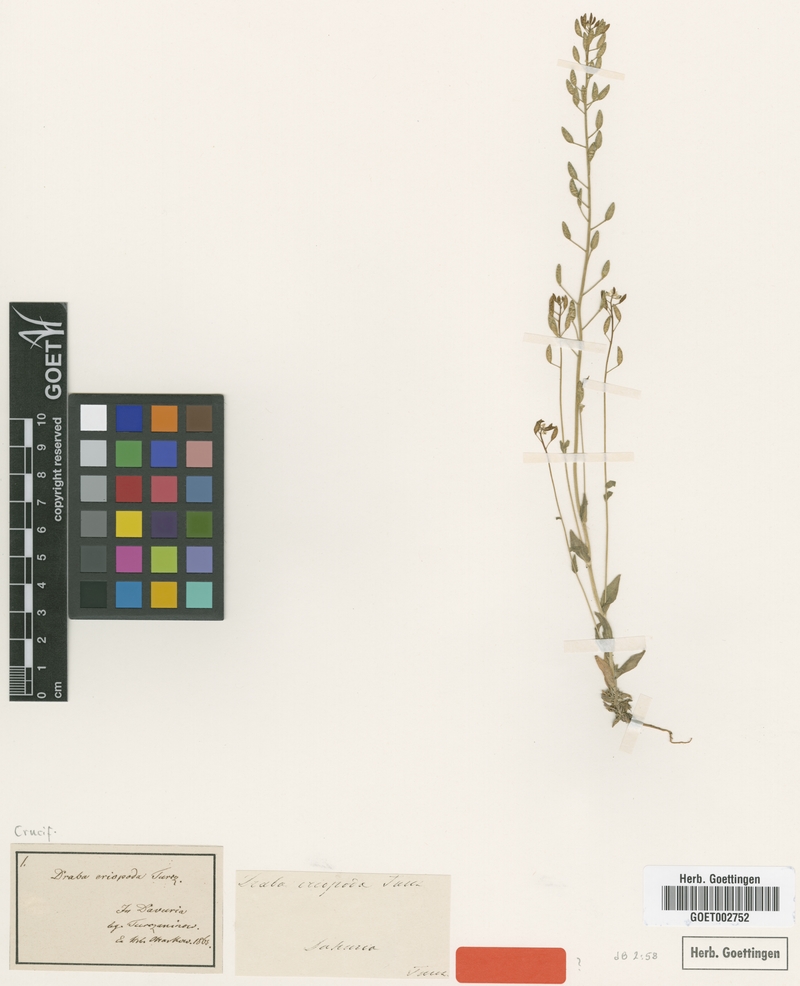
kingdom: Plantae
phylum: Tracheophyta
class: Magnoliopsida
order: Brassicales
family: Brassicaceae
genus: Draba
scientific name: Draba eriopoda
